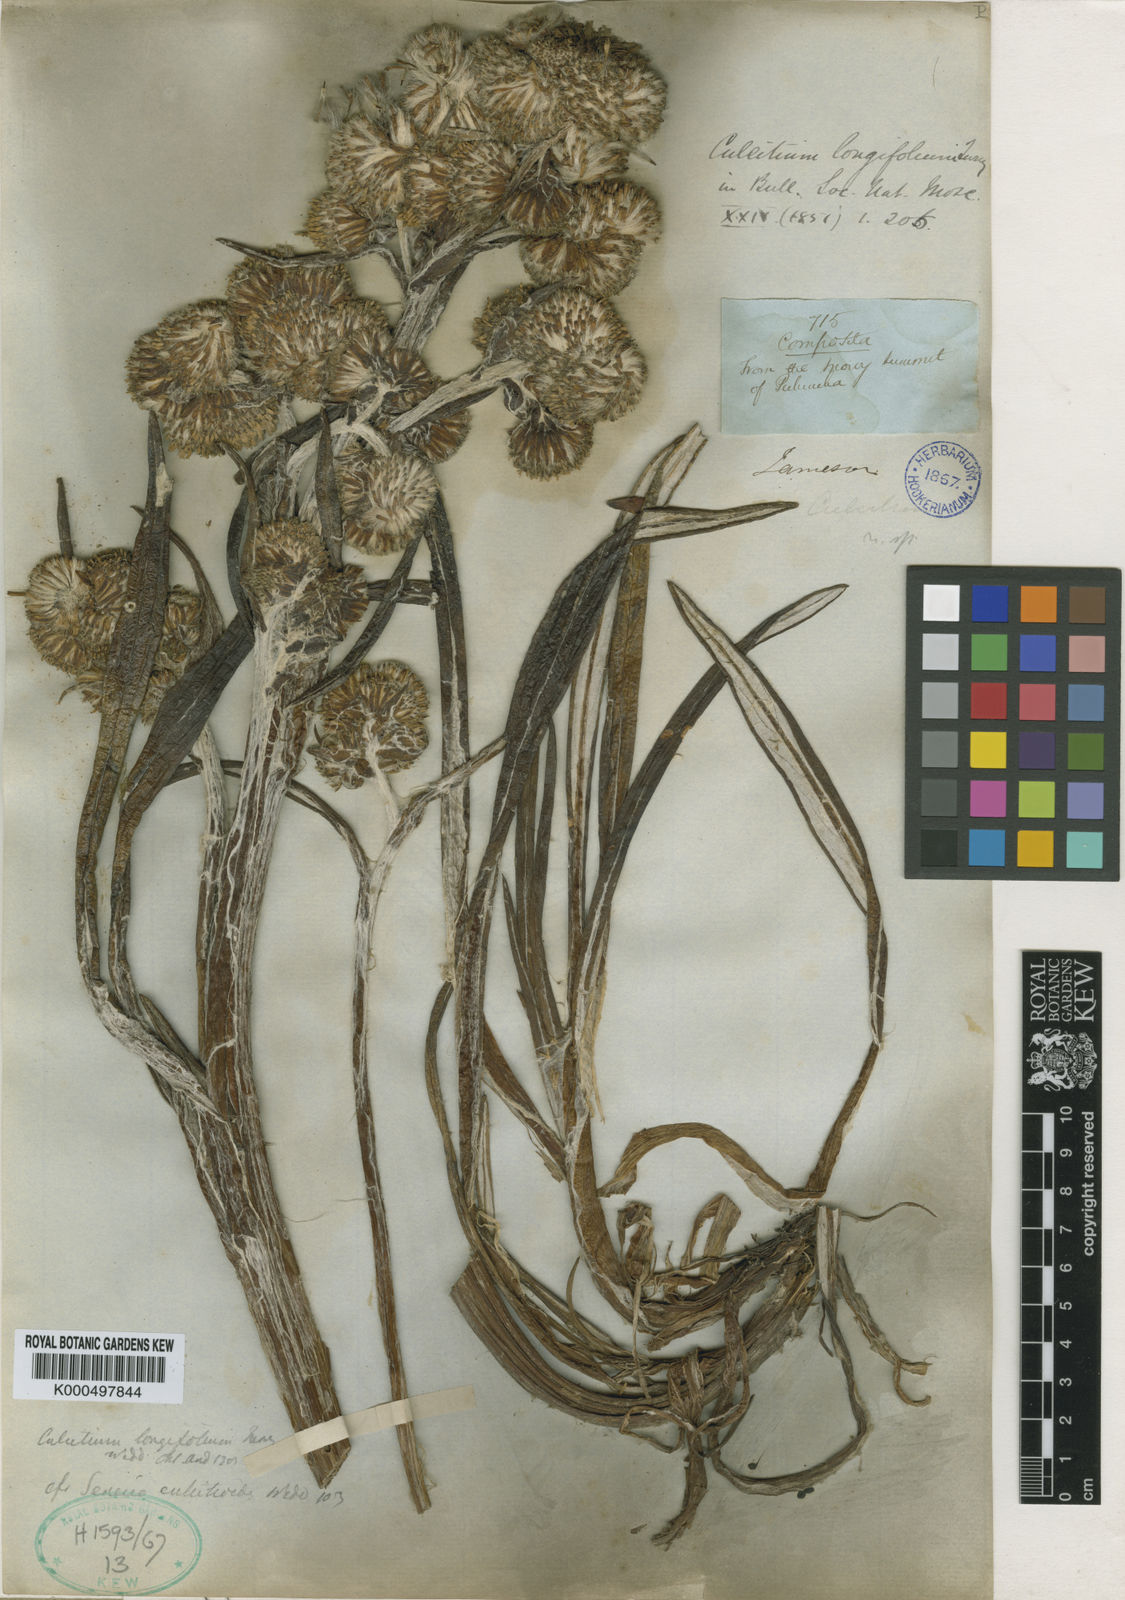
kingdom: Plantae
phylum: Tracheophyta
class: Magnoliopsida
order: Asterales
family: Asteraceae
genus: Senecio
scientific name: Senecio comosus
